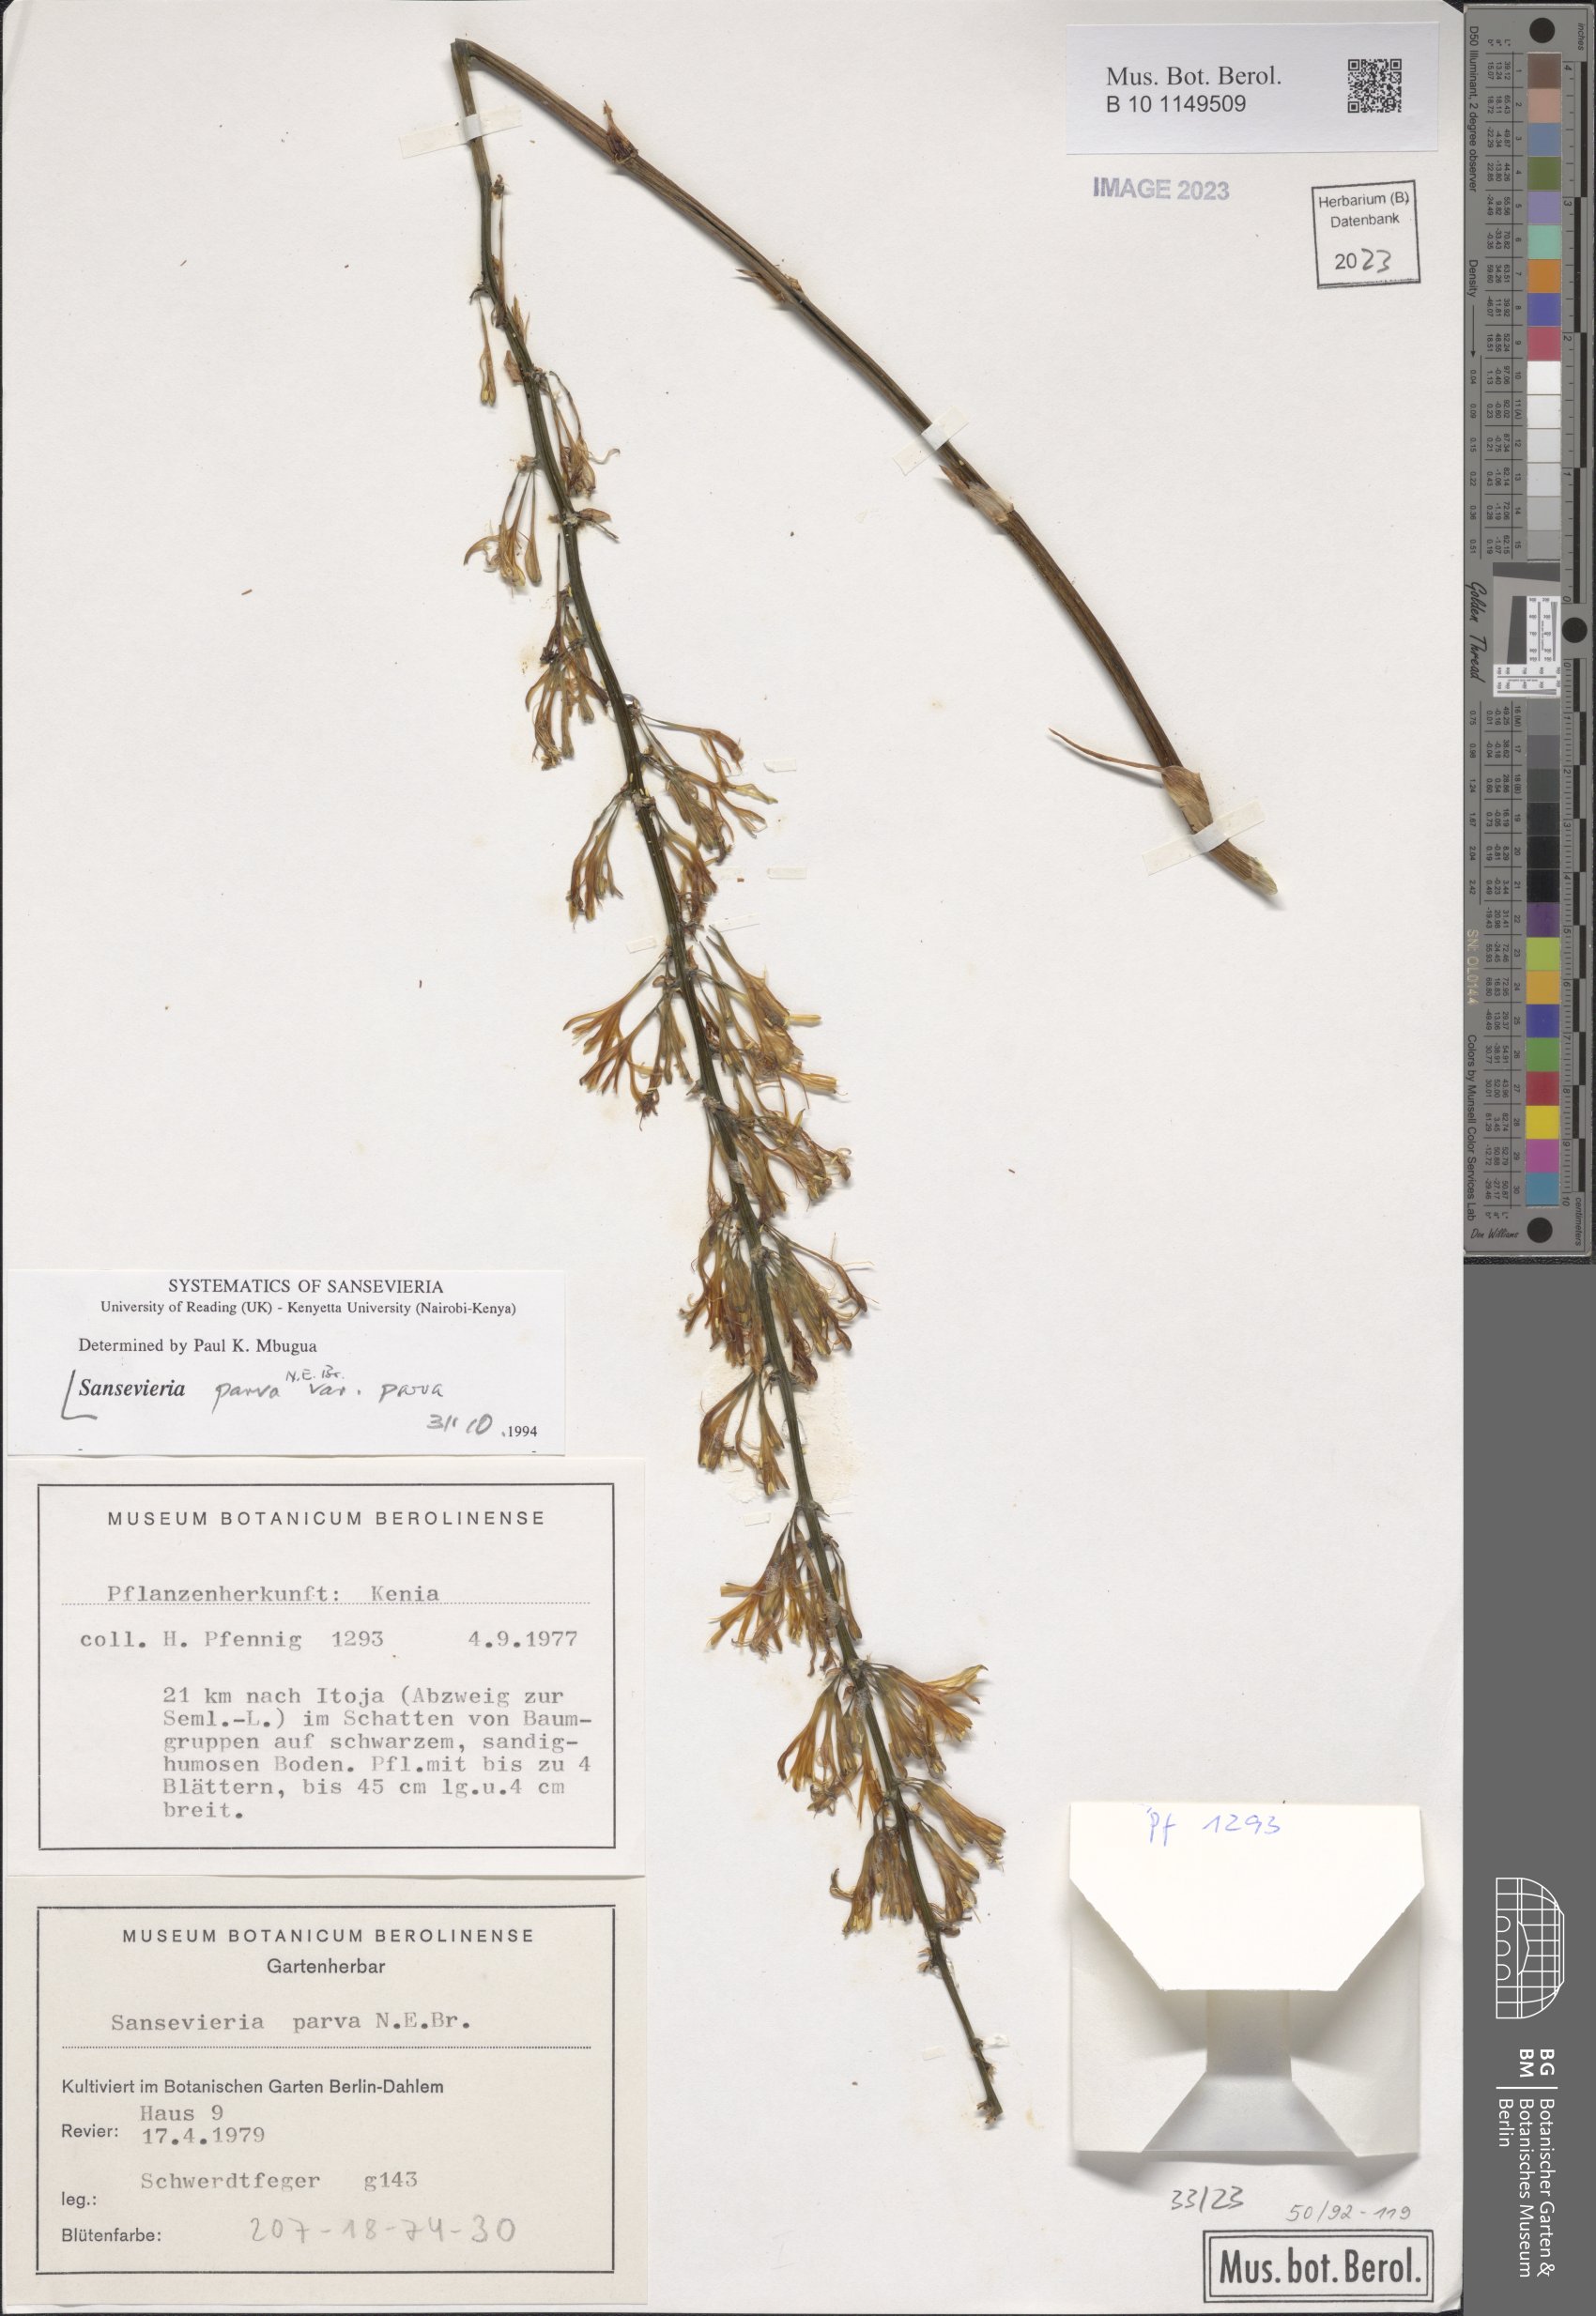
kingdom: Plantae
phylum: Tracheophyta
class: Liliopsida
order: Asparagales
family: Asparagaceae
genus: Dracaena
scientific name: Dracaena parva
